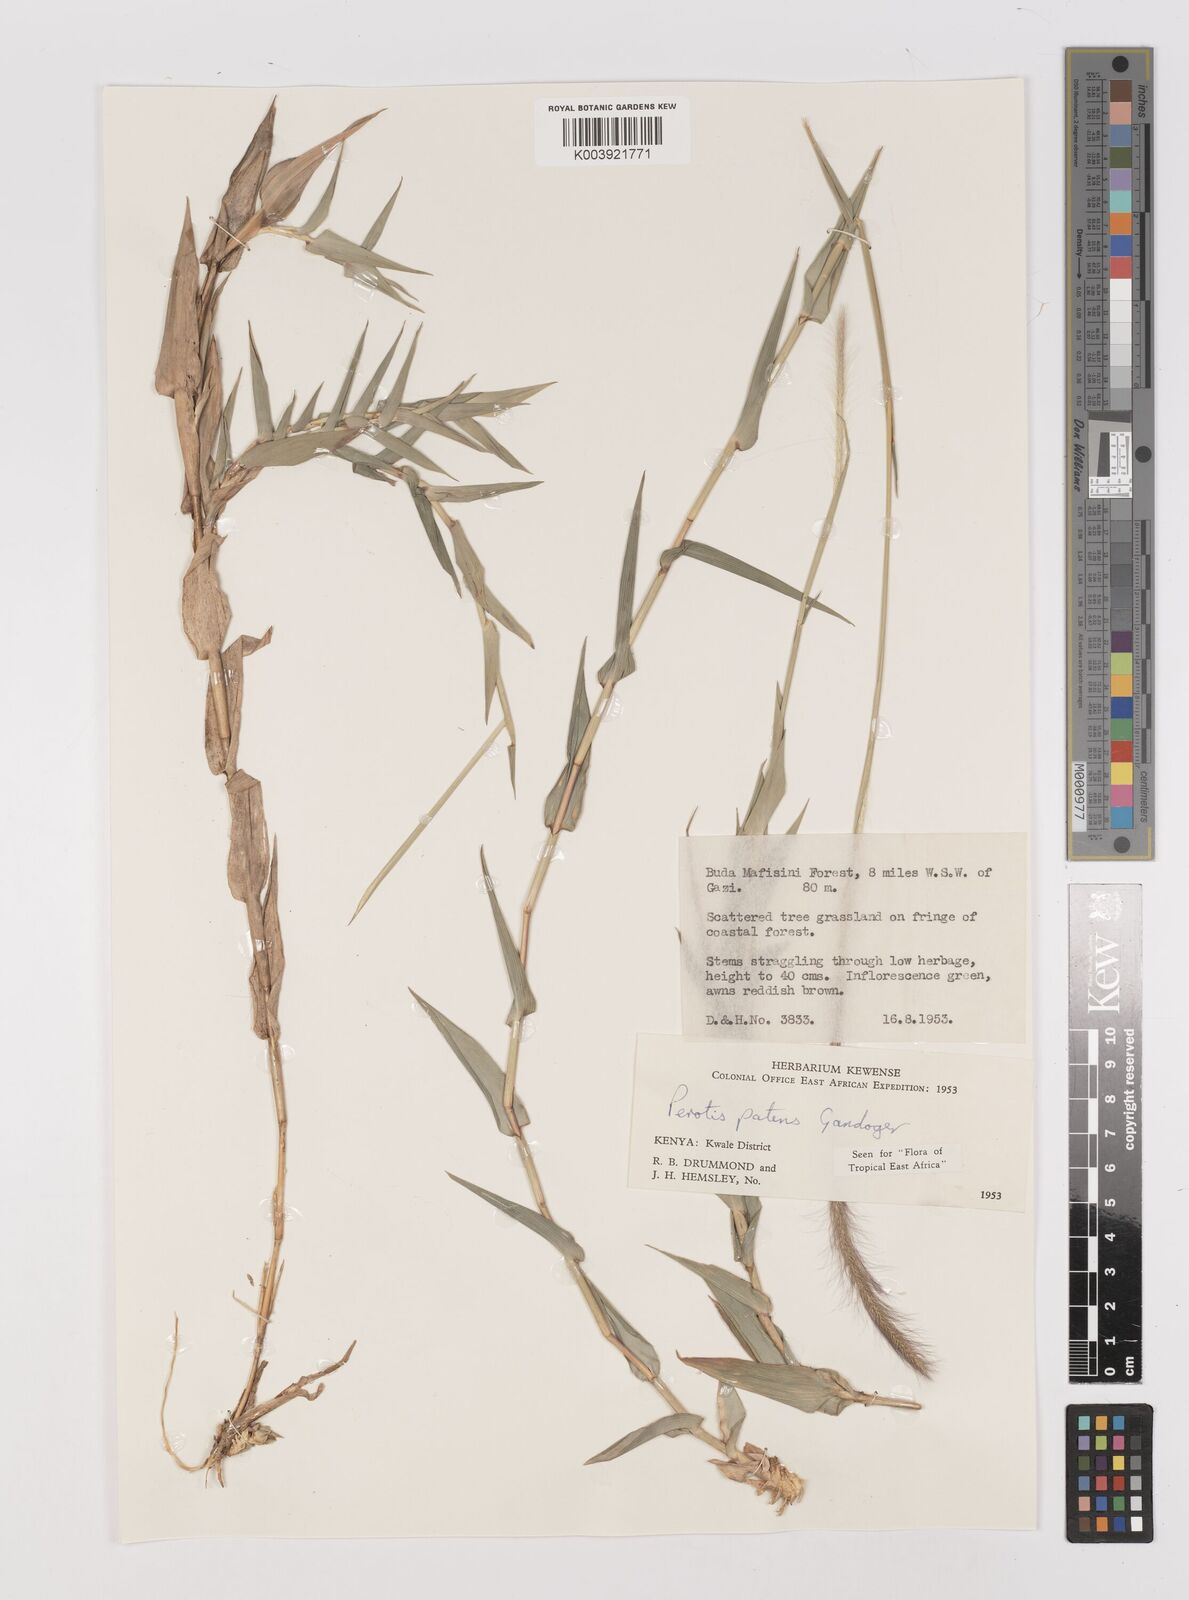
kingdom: Plantae
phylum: Tracheophyta
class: Liliopsida
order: Poales
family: Poaceae
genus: Perotis
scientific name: Perotis patens
